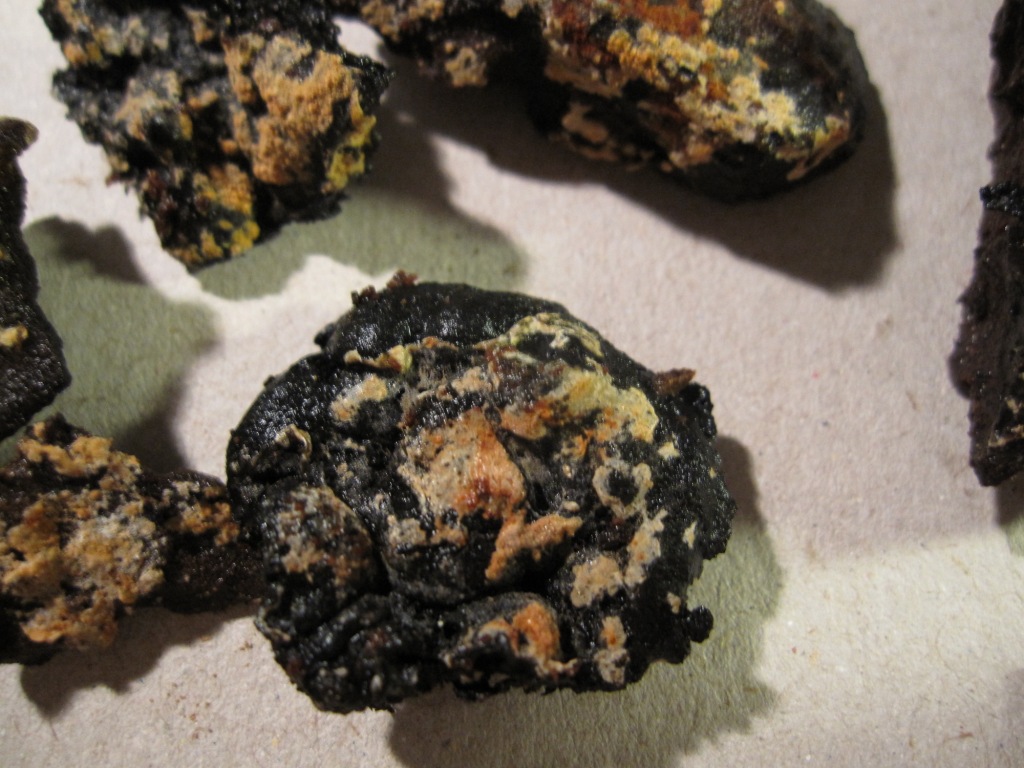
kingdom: Fungi
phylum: Basidiomycota
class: Agaricomycetes
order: Cantharellales
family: Botryobasidiaceae
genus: Botryobasidium
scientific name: Botryobasidium aureum
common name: gylden spindhinde
